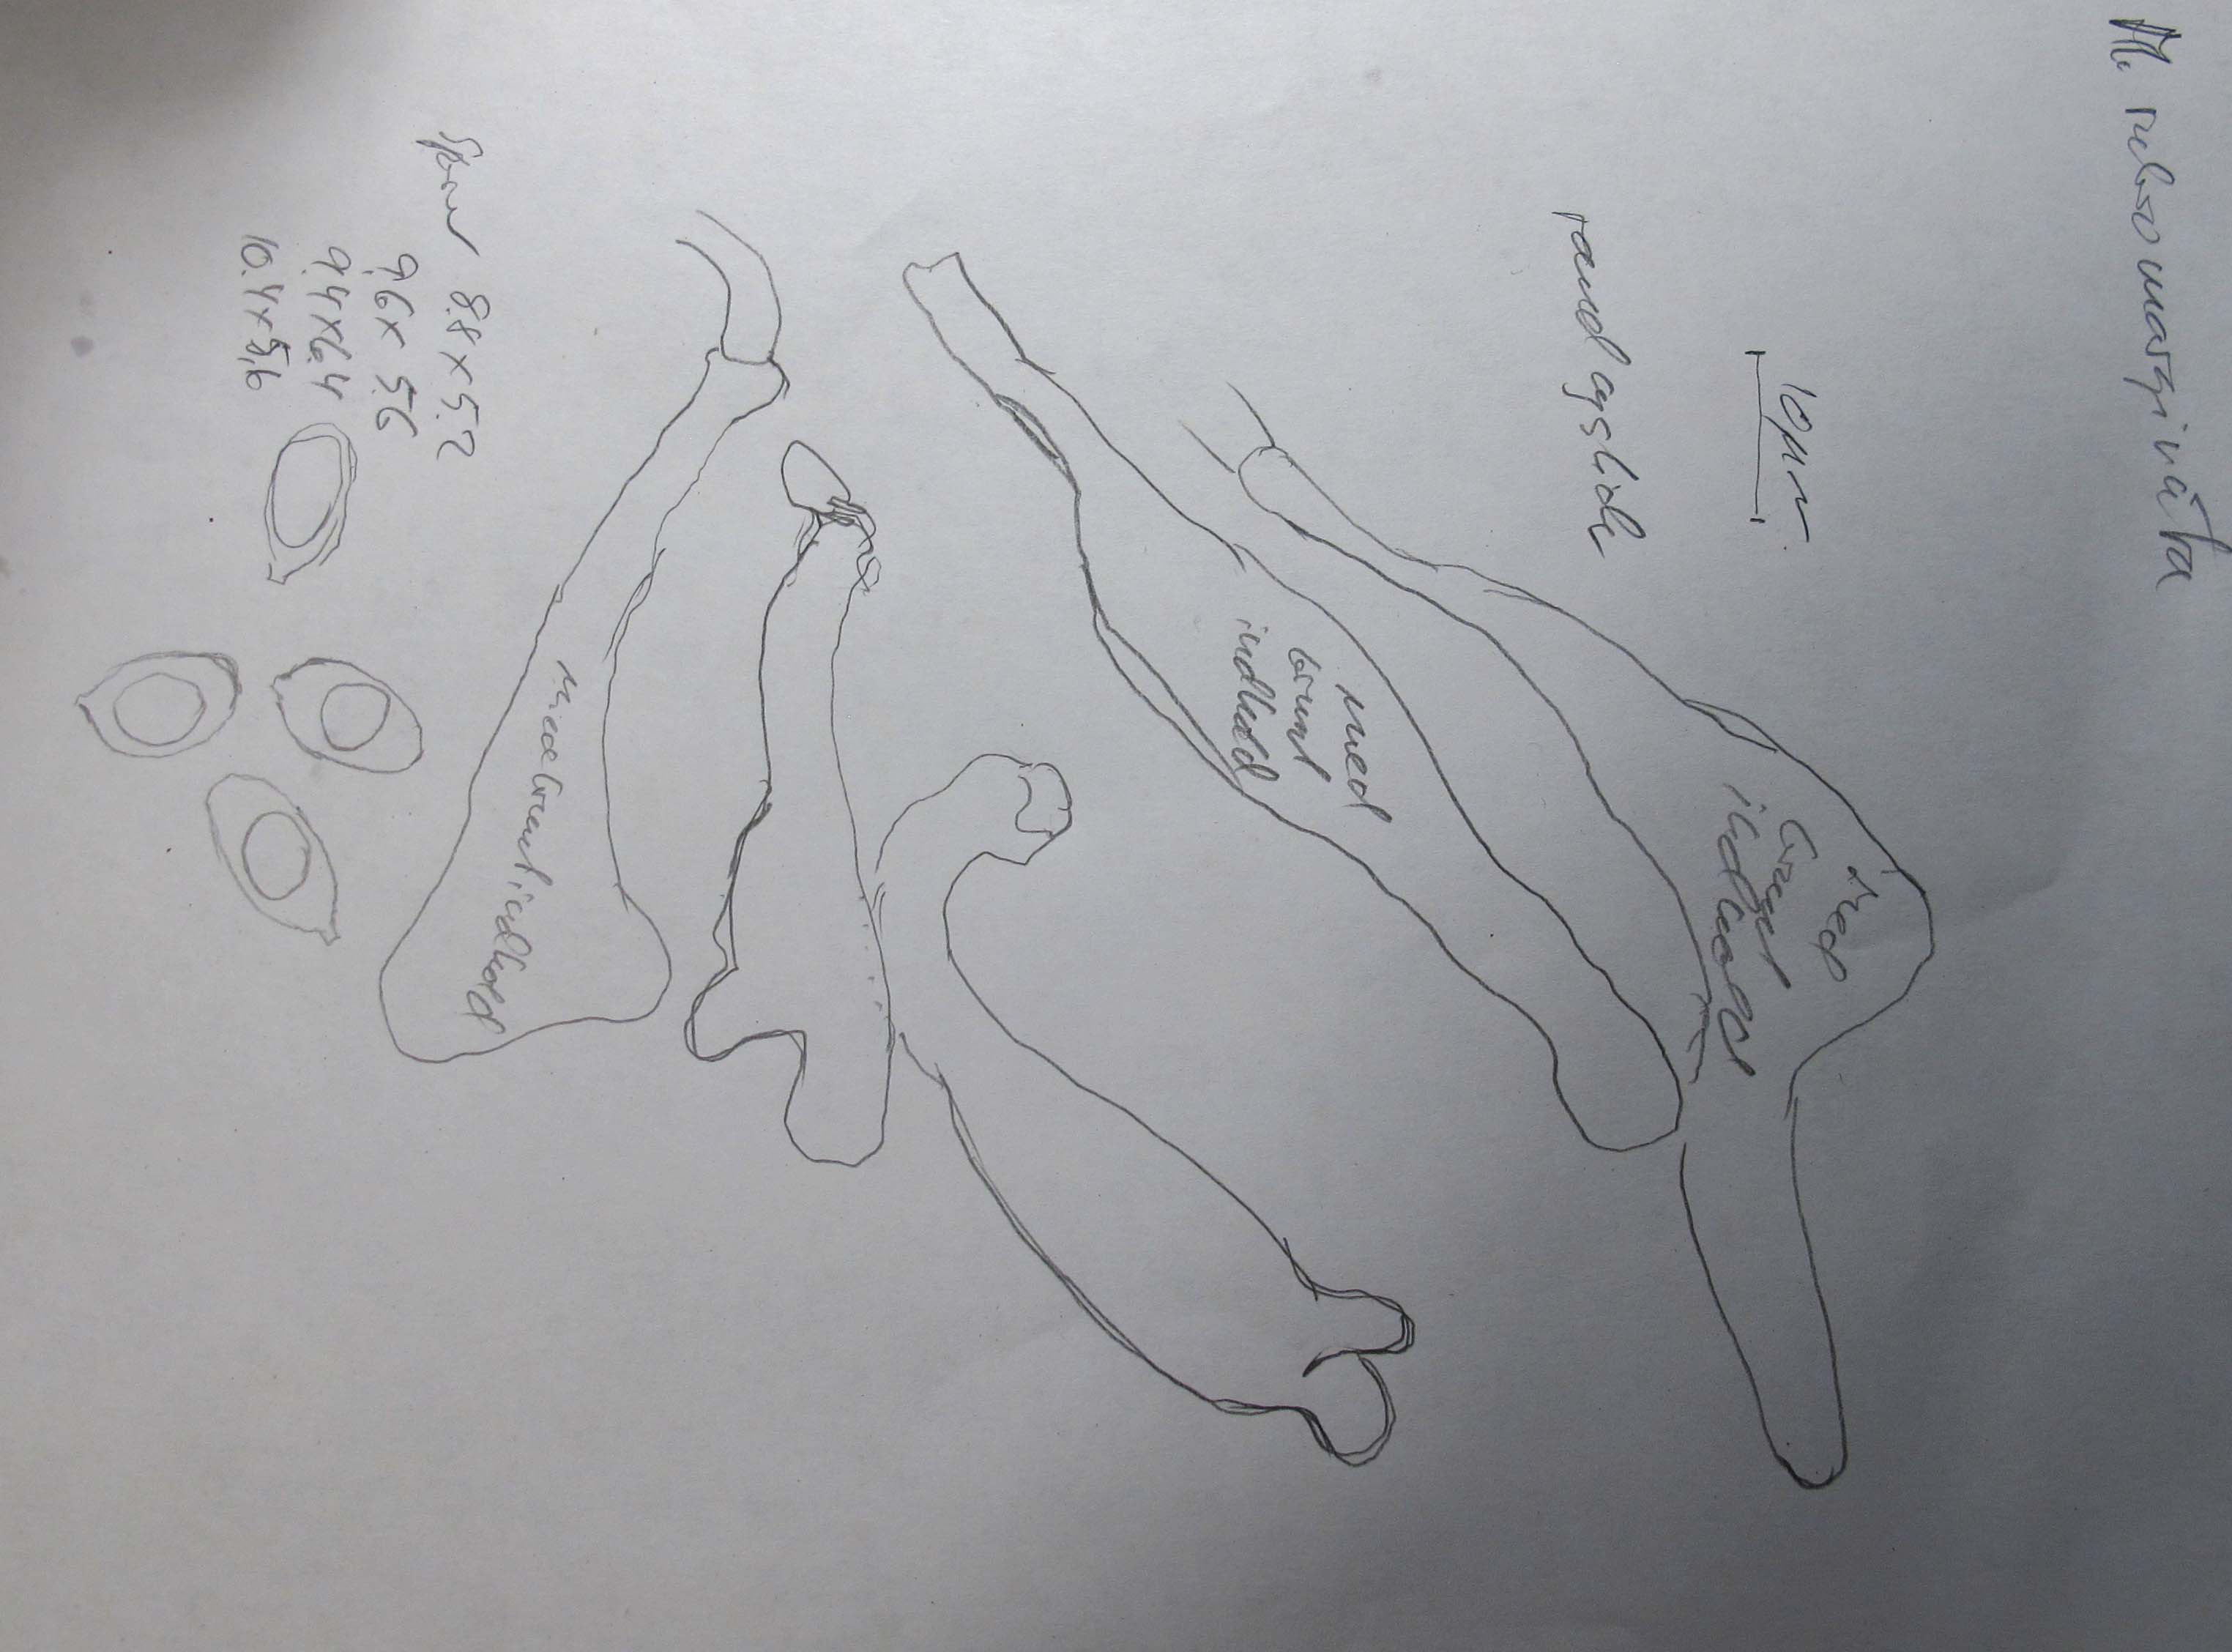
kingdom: Fungi
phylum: Basidiomycota
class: Agaricomycetes
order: Agaricales
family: Mycenaceae
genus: Mycena
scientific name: Mycena rubromarginata
